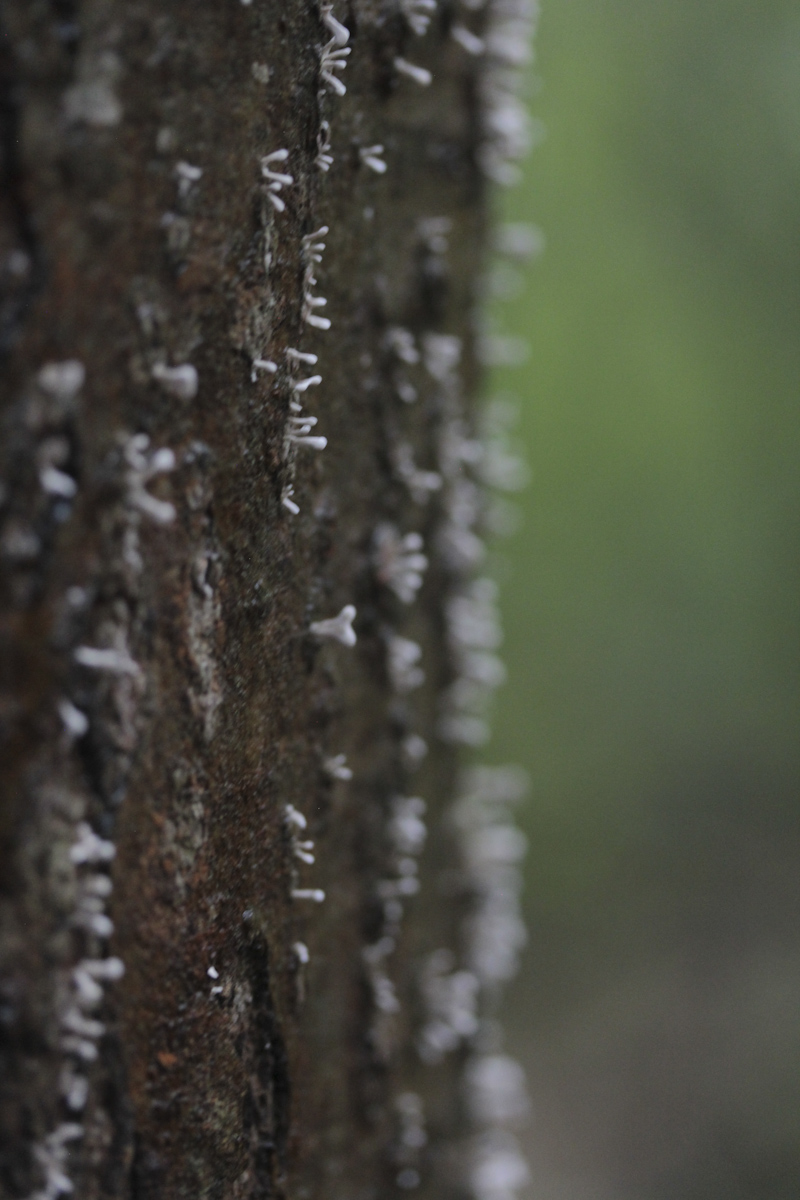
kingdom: Fungi
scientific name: Fungi
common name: Fungi
